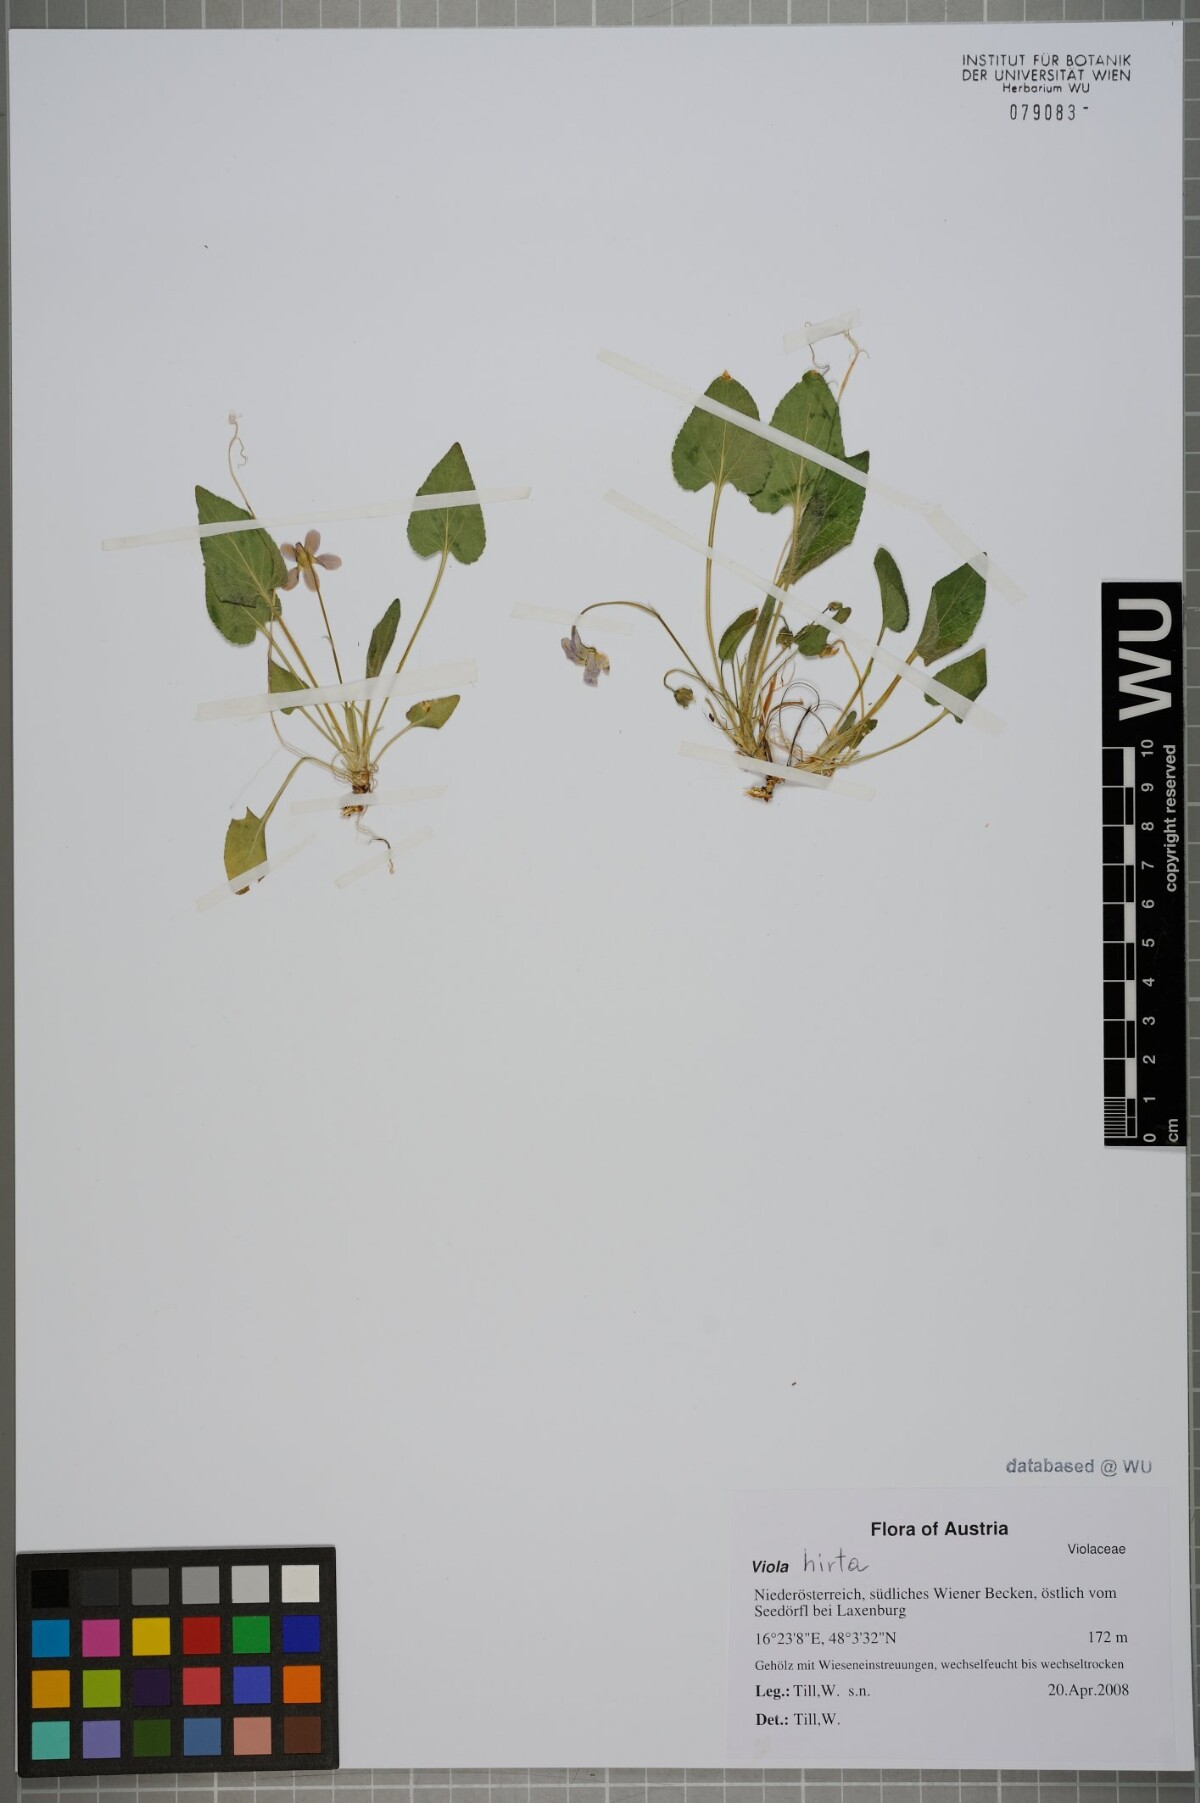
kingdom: Plantae
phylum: Tracheophyta
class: Magnoliopsida
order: Malpighiales
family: Violaceae
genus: Viola
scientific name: Viola hirta
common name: Hairy violet
